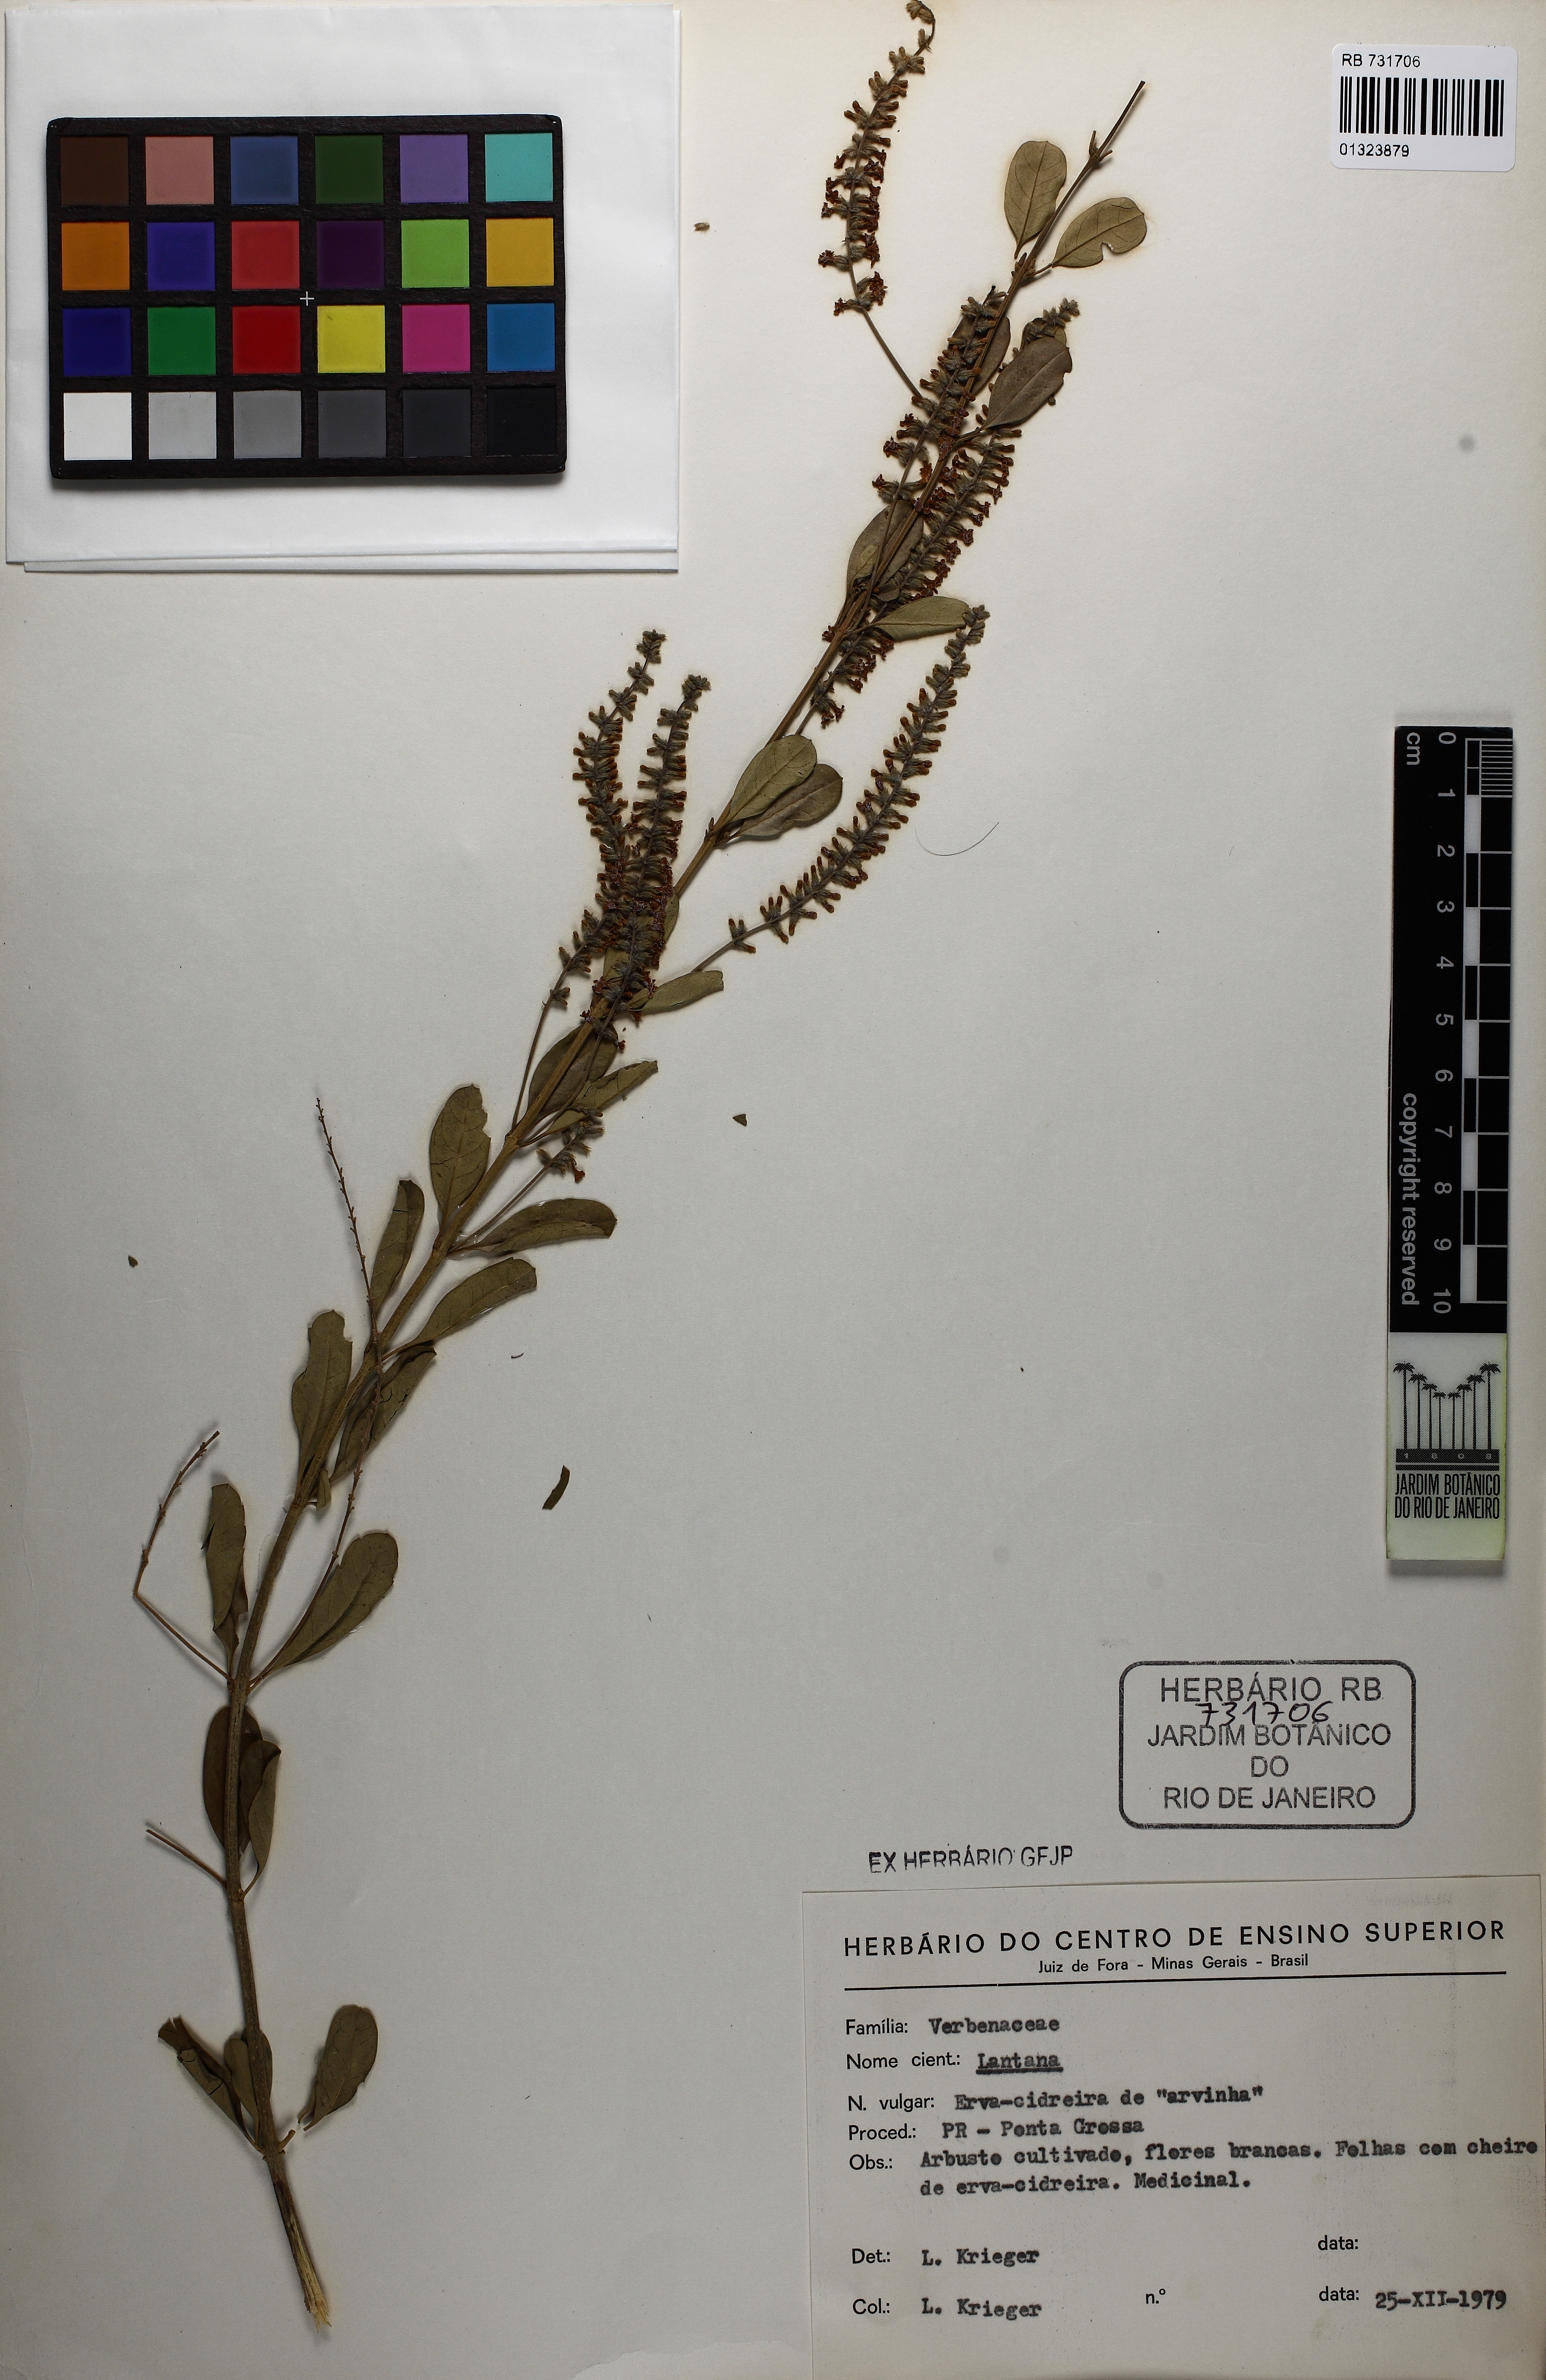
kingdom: Plantae
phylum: Tracheophyta
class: Magnoliopsida
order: Lamiales
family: Verbenaceae
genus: Lantana
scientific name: Lantana
